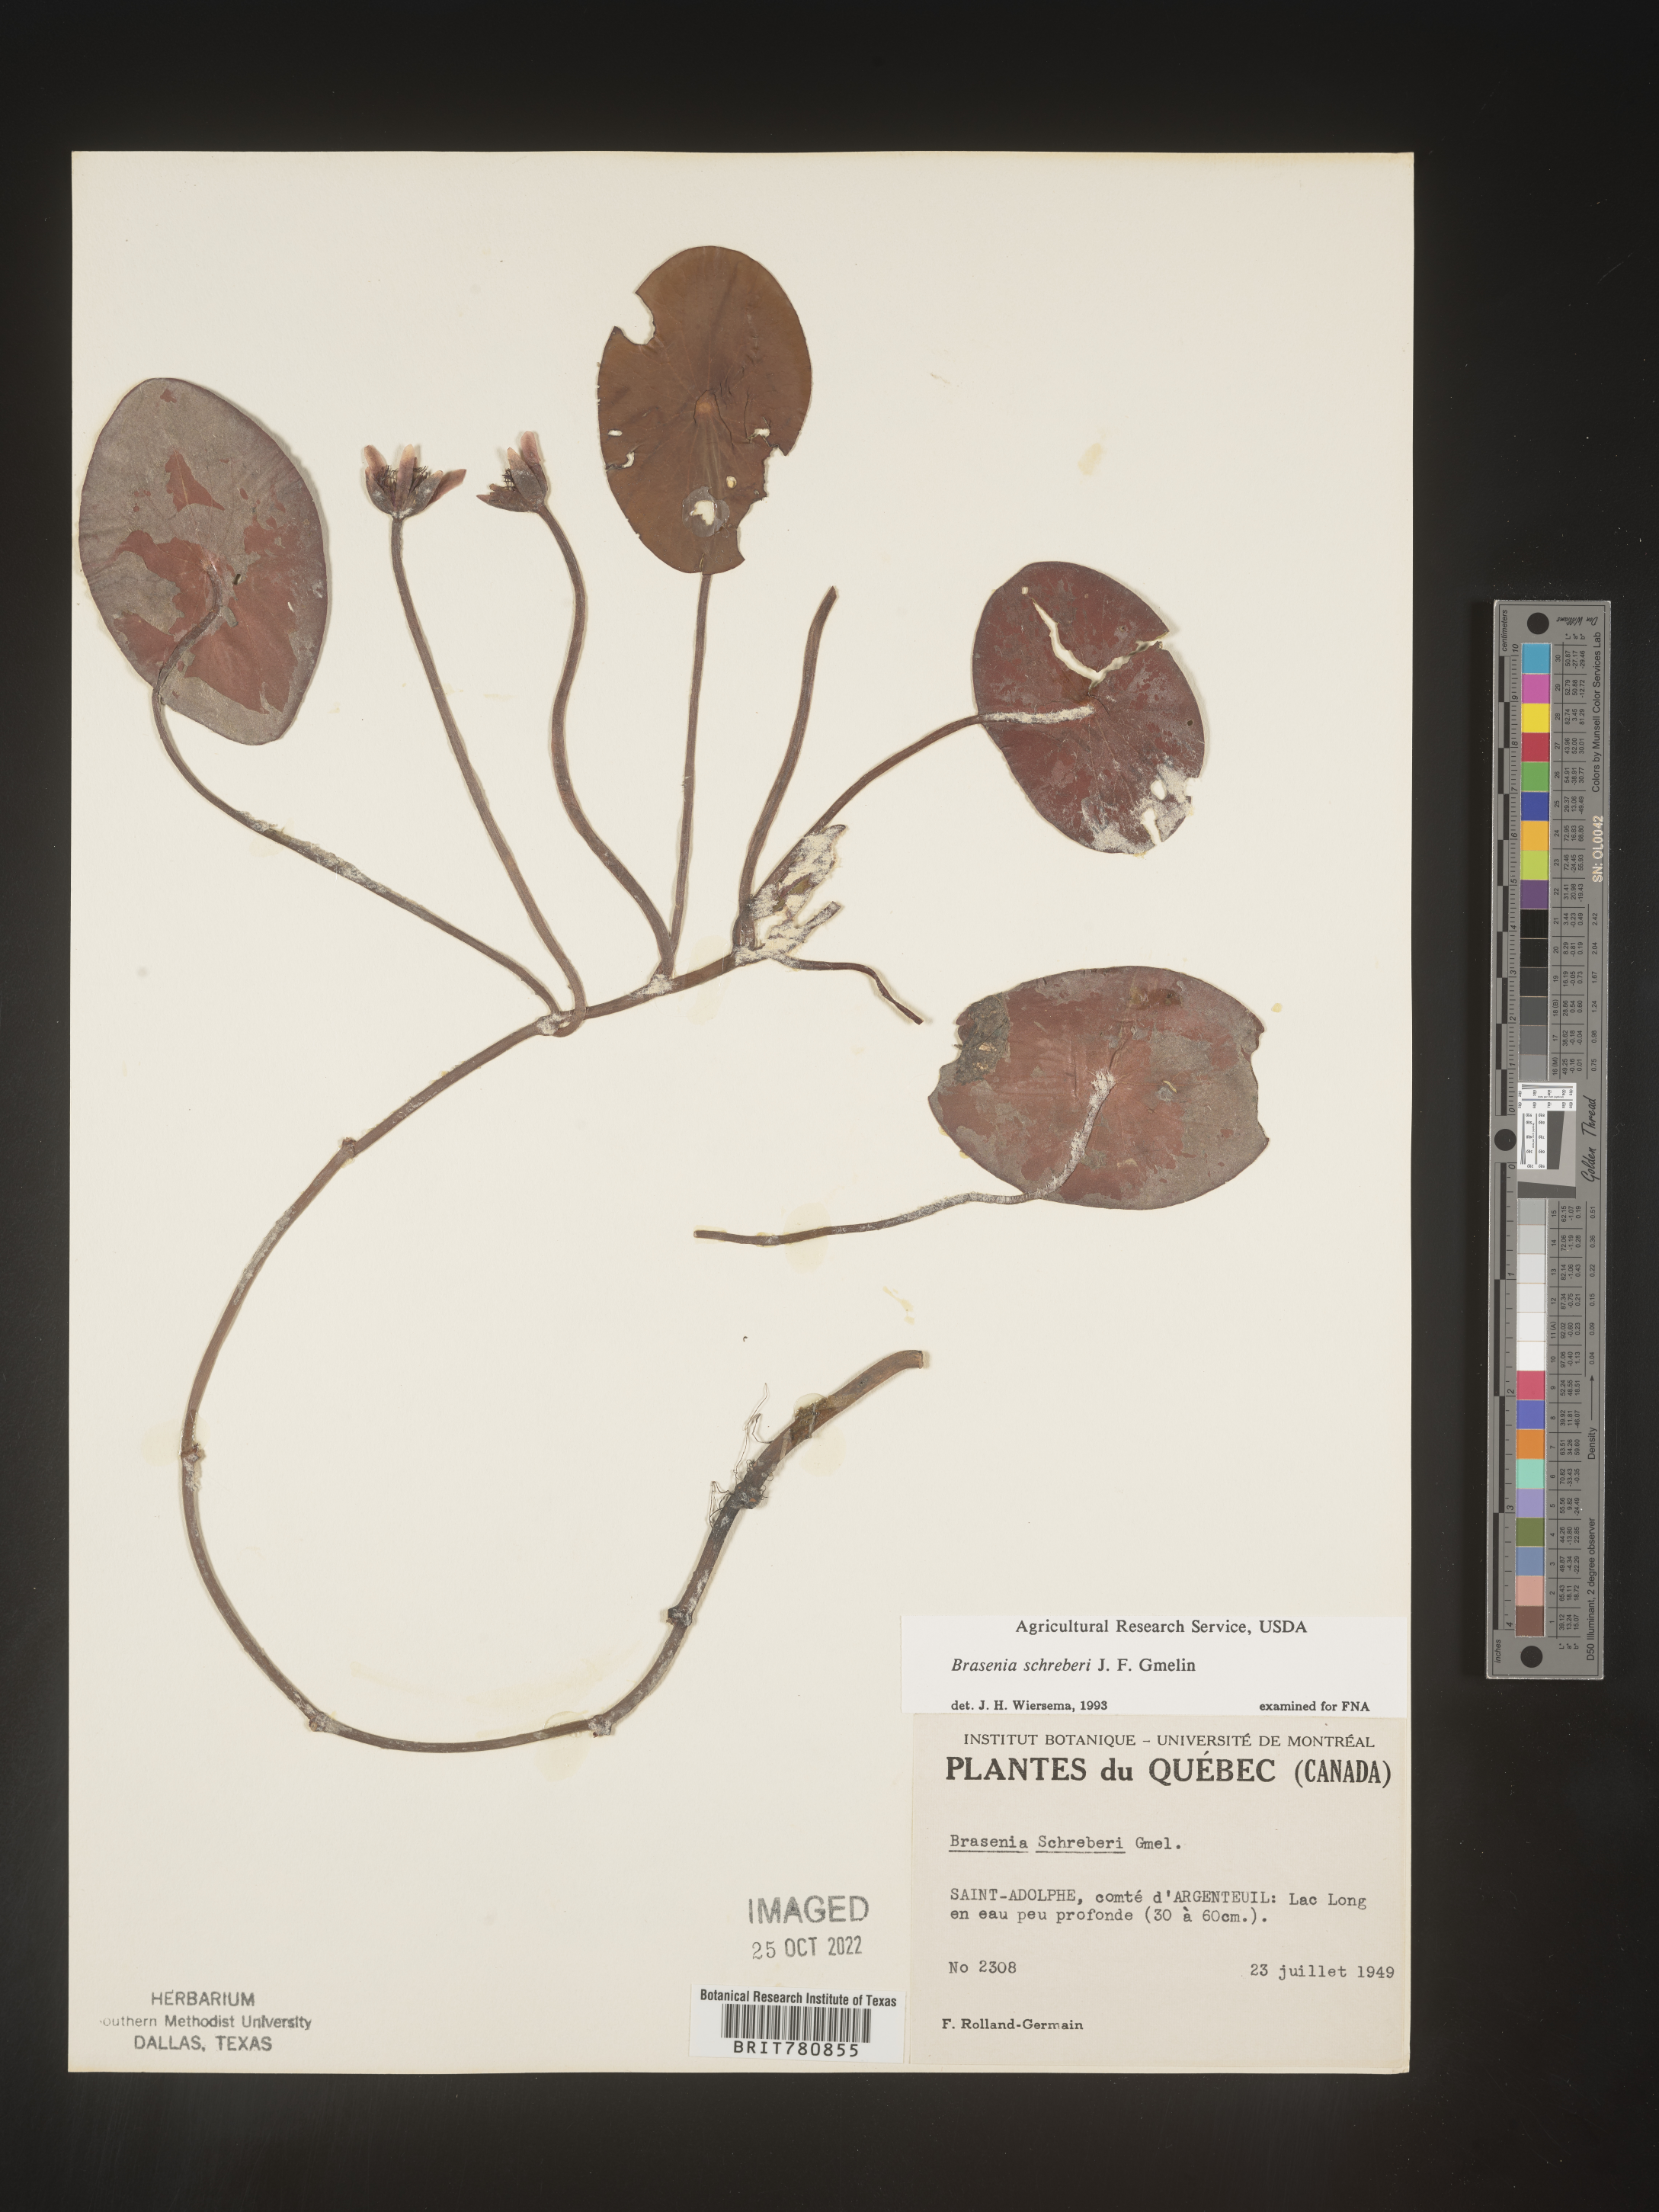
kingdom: Plantae
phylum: Tracheophyta
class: Magnoliopsida
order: Nymphaeales
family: Cabombaceae
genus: Brasenia
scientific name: Brasenia schreberi
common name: Water-shield
